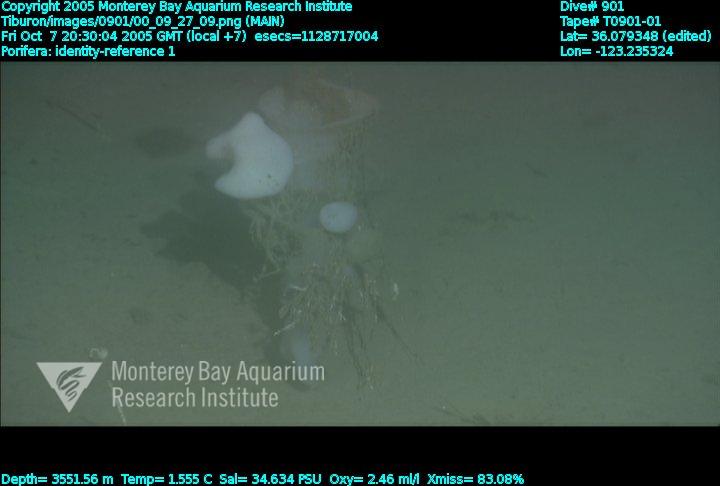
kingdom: Animalia
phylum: Porifera
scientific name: Porifera
